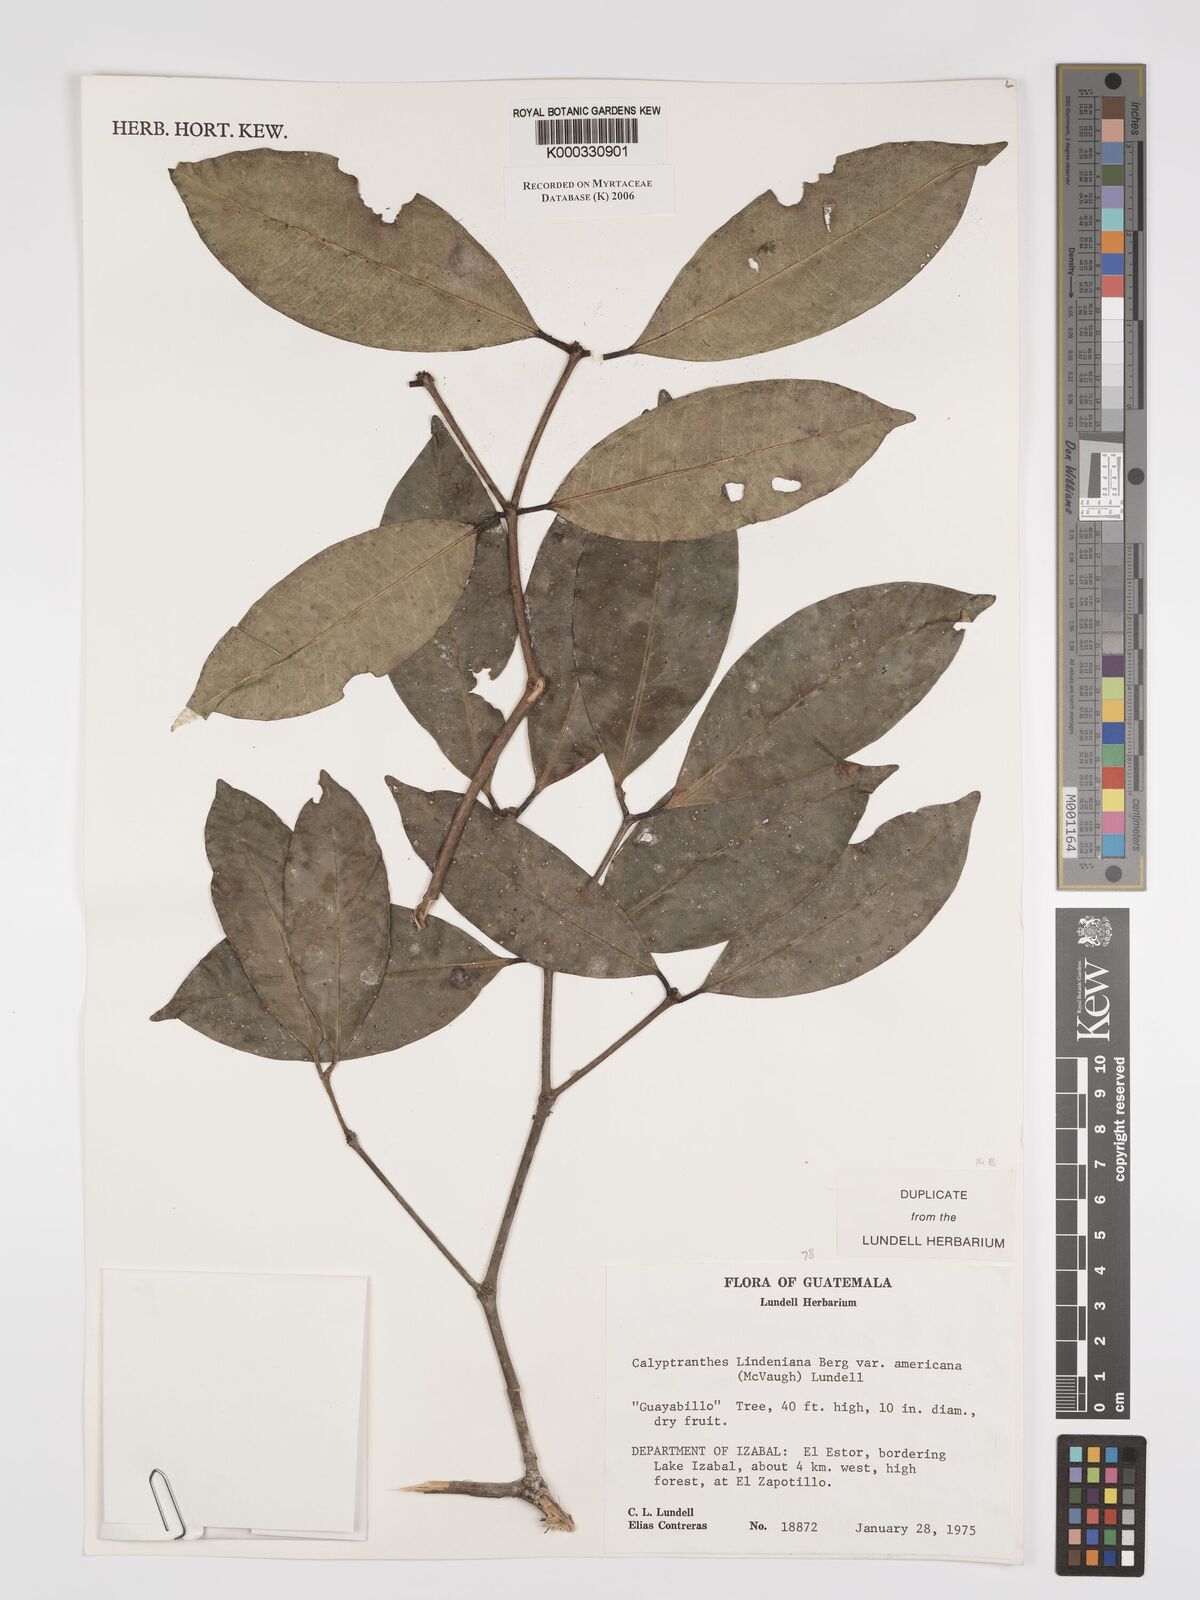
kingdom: Plantae
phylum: Tracheophyta
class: Magnoliopsida
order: Myrtales
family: Myrtaceae
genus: Myrcia
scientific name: Myrcia chytraculia
